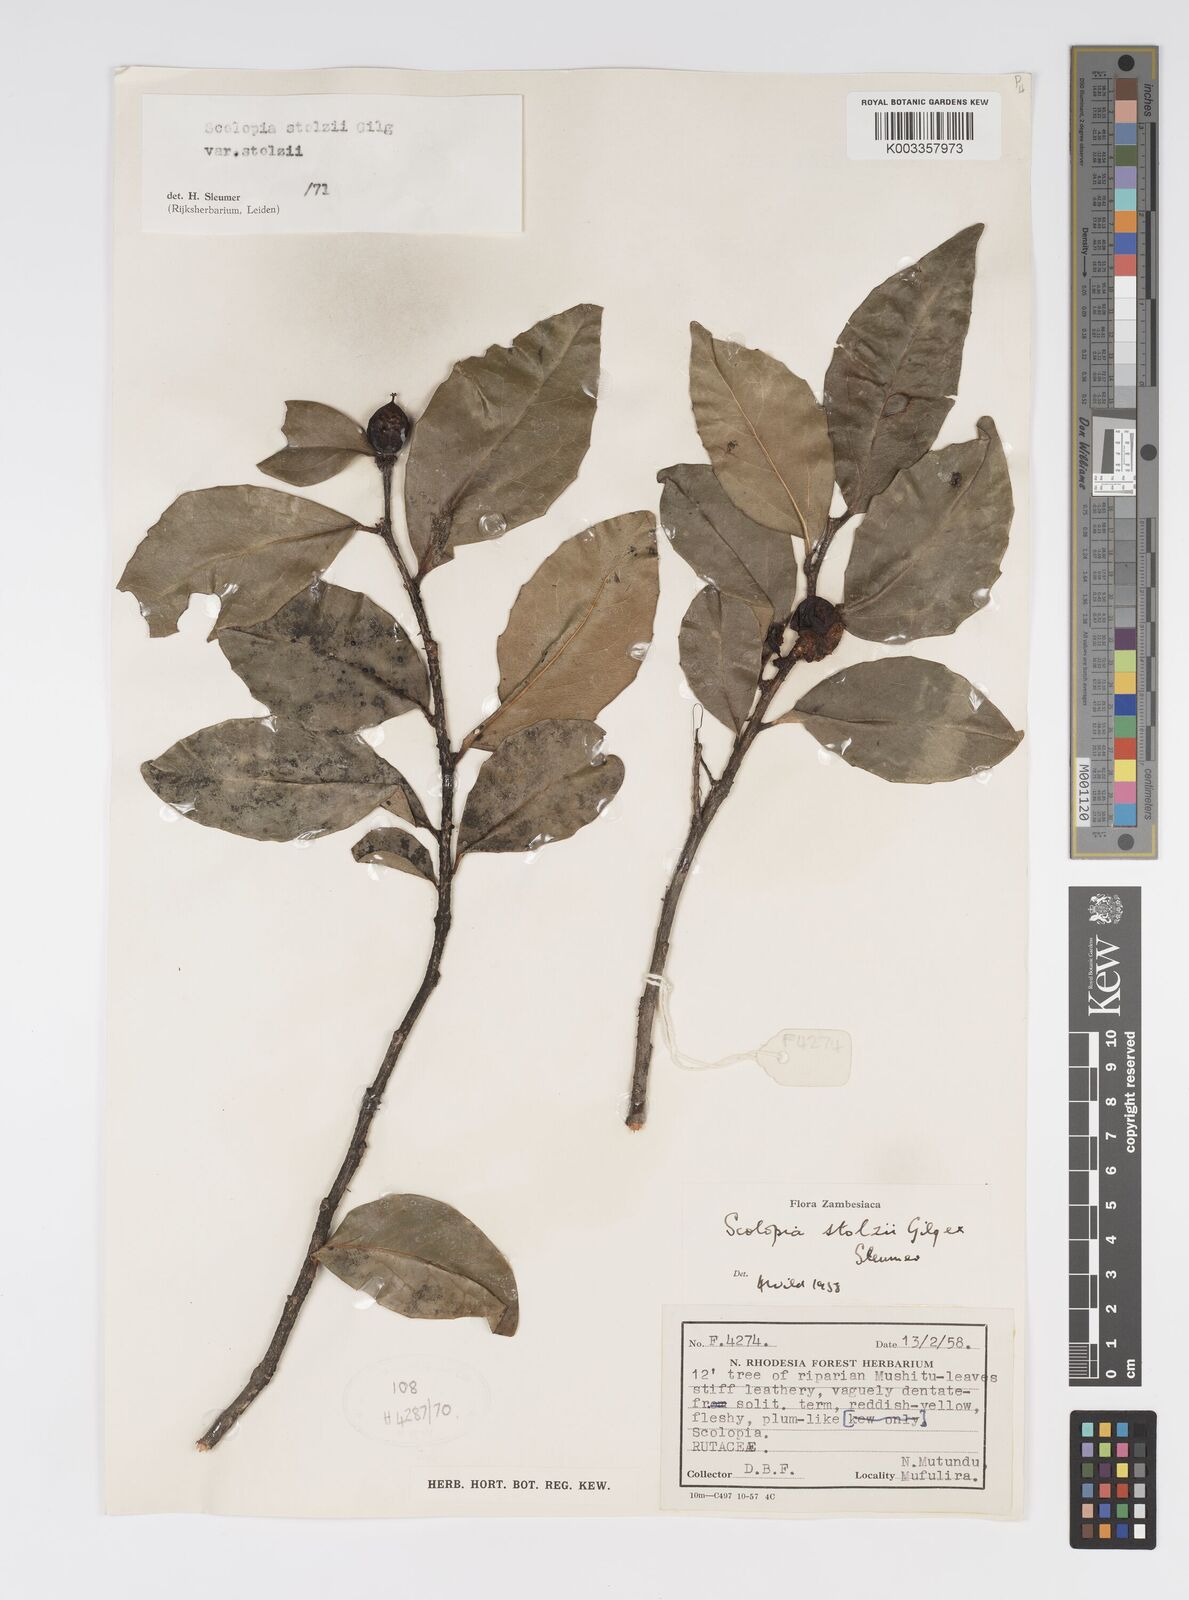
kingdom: Plantae
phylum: Tracheophyta
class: Magnoliopsida
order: Malpighiales
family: Salicaceae
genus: Scolopia
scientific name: Scolopia stolzii
